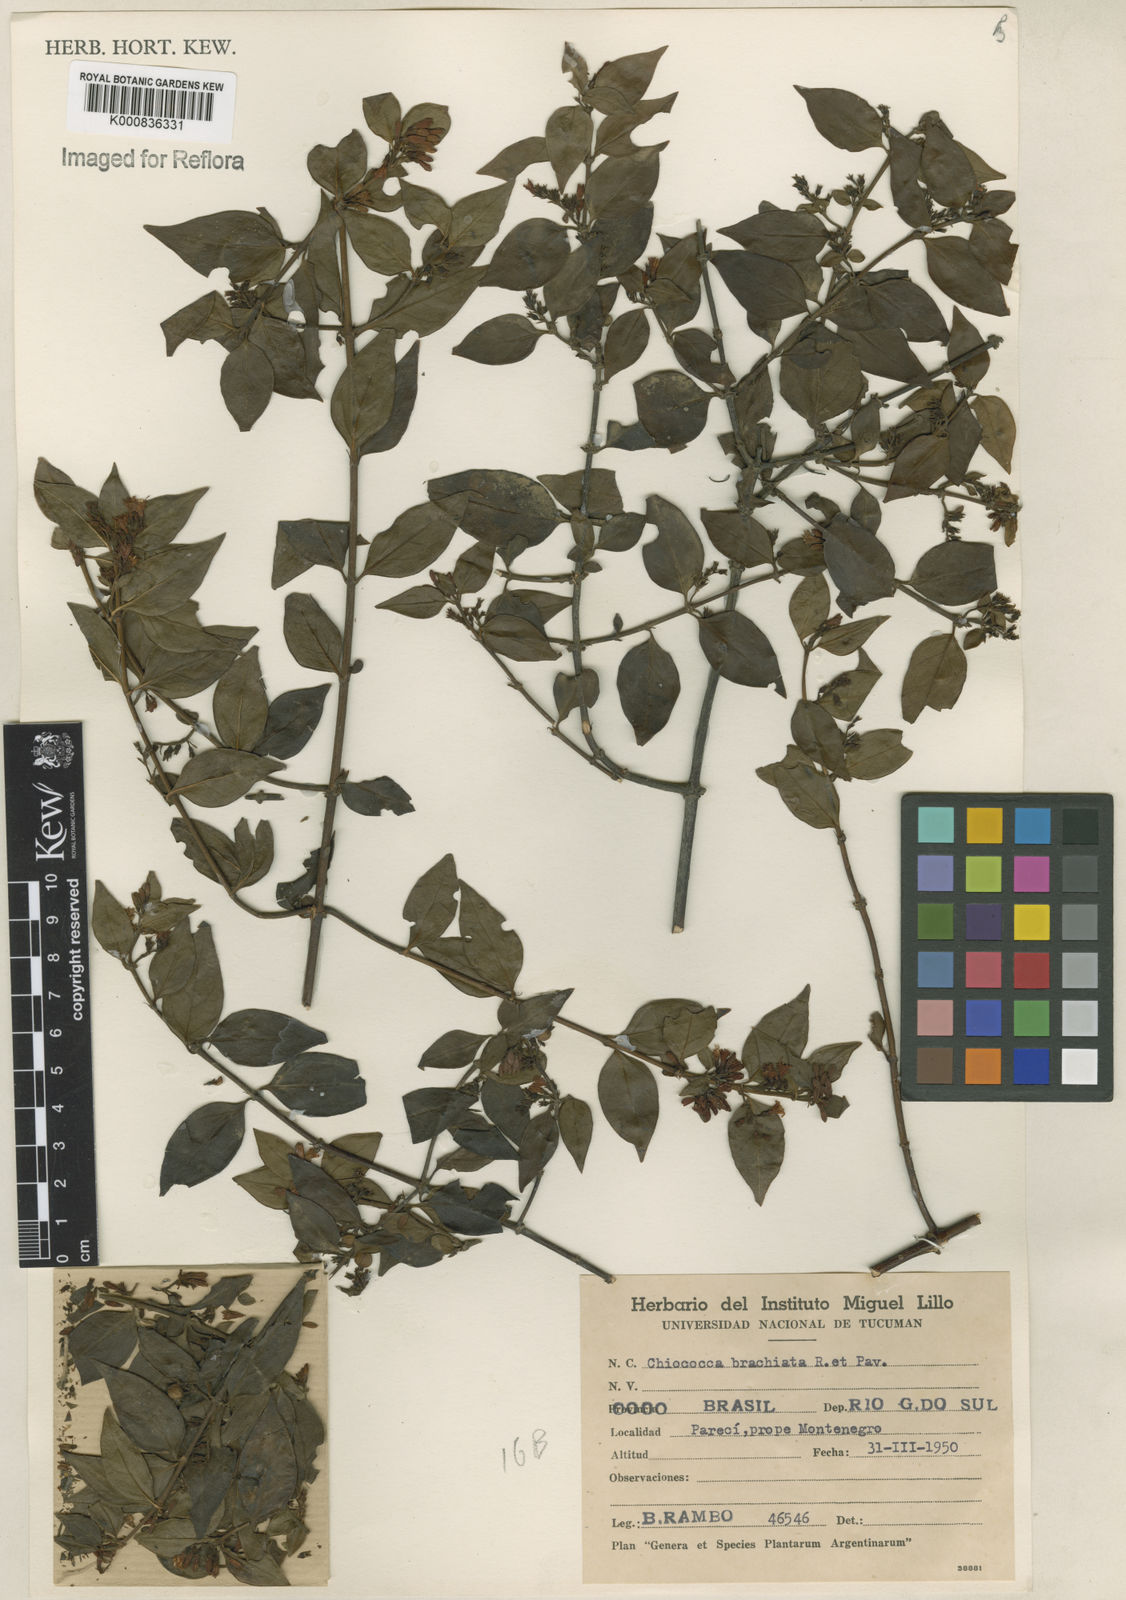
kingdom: Plantae
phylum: Tracheophyta
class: Magnoliopsida
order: Gentianales
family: Rubiaceae
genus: Chiococca
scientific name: Chiococca alba
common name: Snowberry
